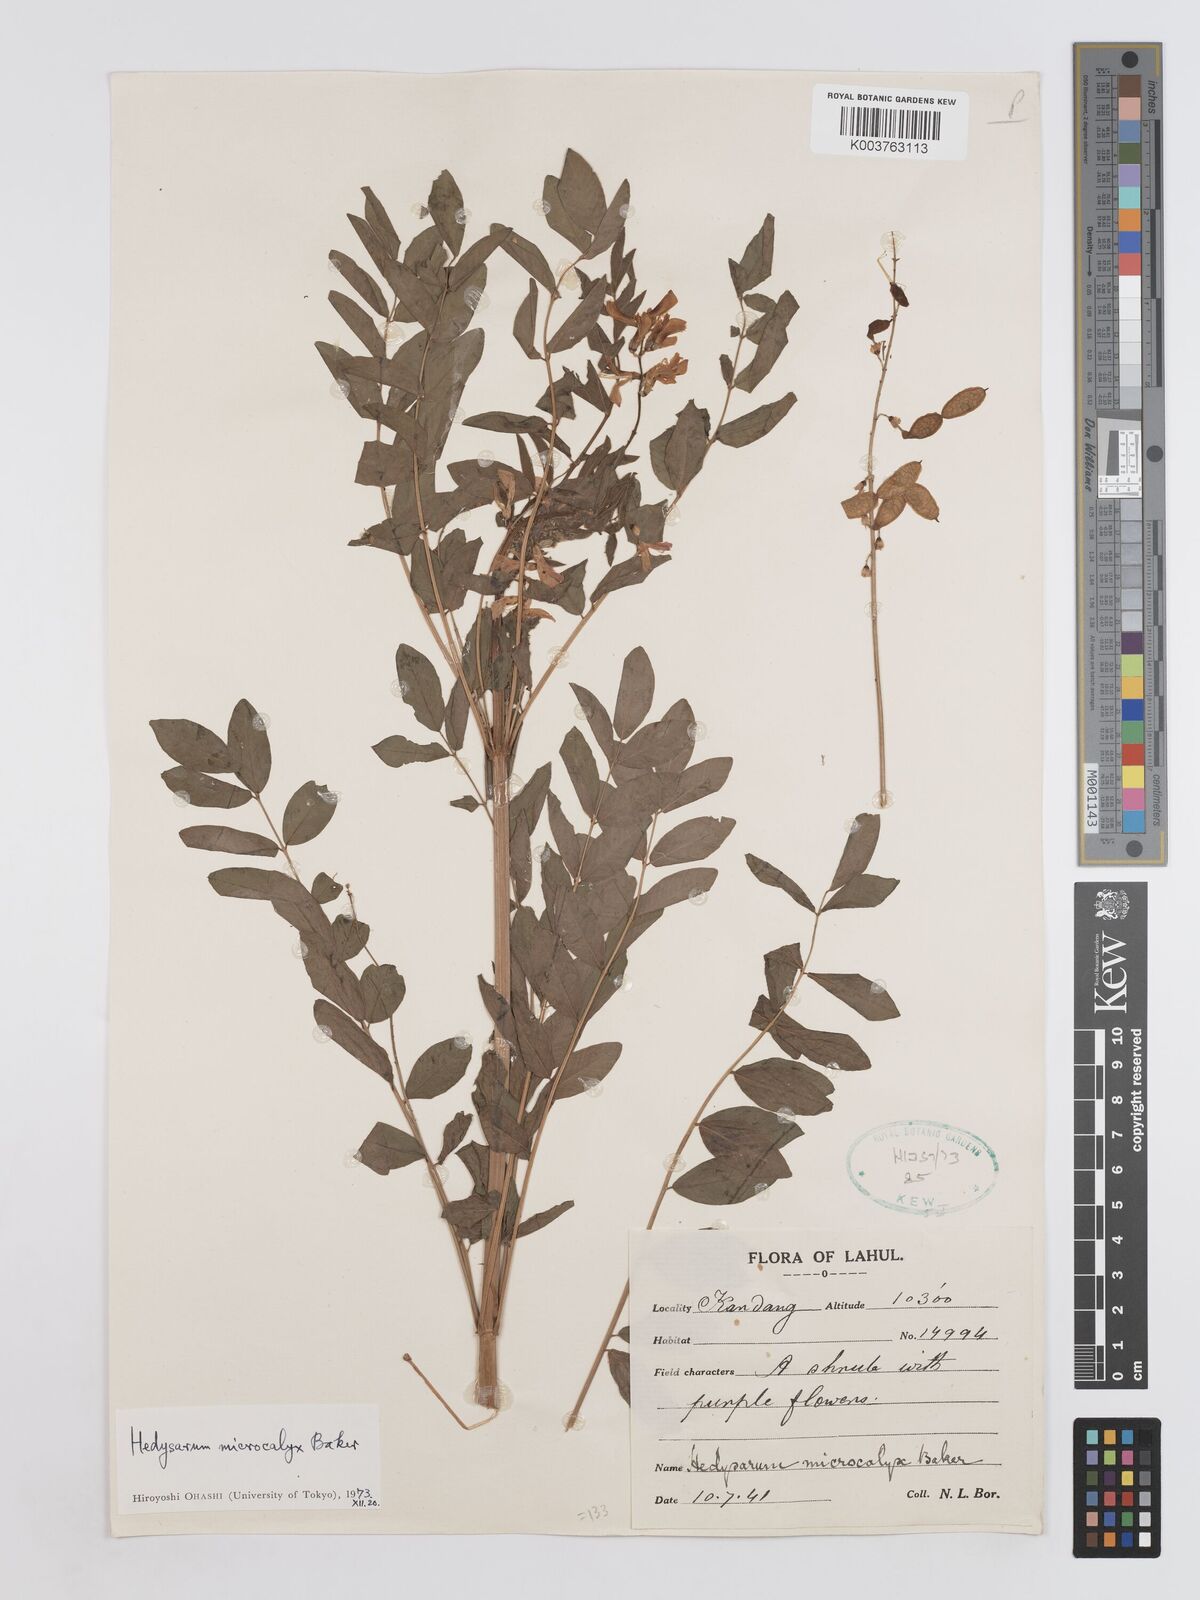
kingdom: Plantae
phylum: Tracheophyta
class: Magnoliopsida
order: Fabales
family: Fabaceae
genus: Hedysarum
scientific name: Hedysarum microcalyx
